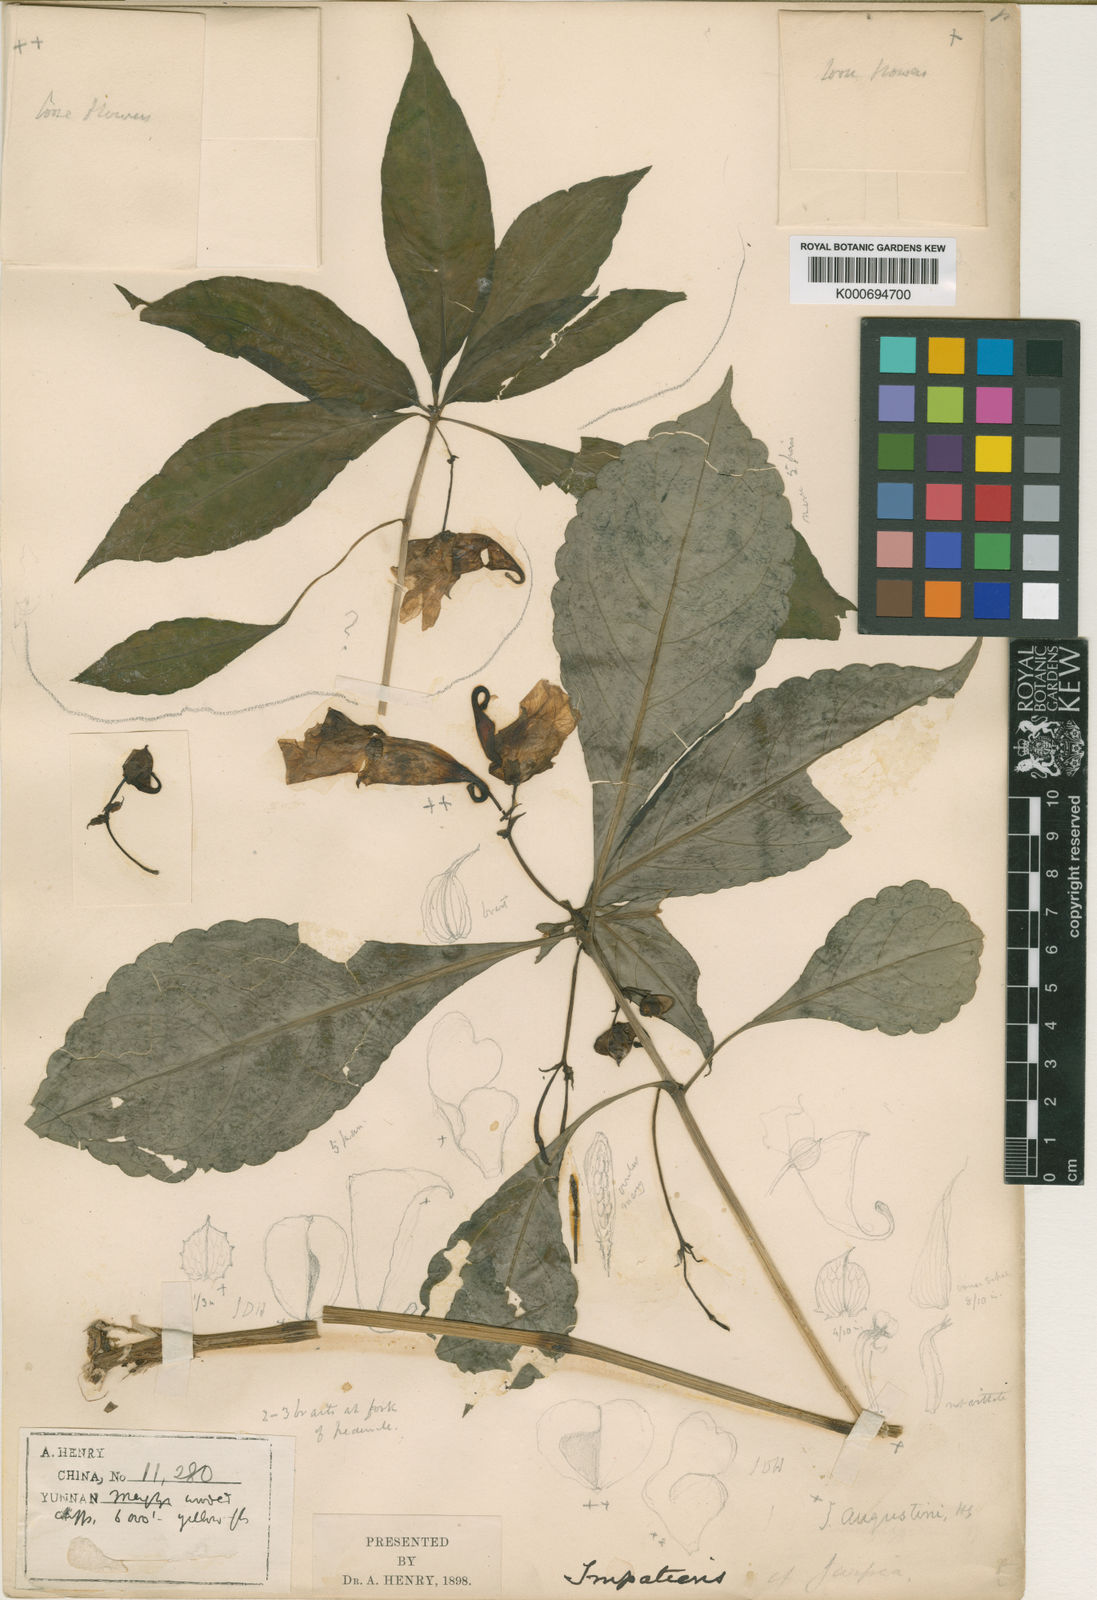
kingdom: Plantae
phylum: Tracheophyta
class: Magnoliopsida
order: Ericales
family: Balsaminaceae
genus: Impatiens
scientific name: Impatiens
